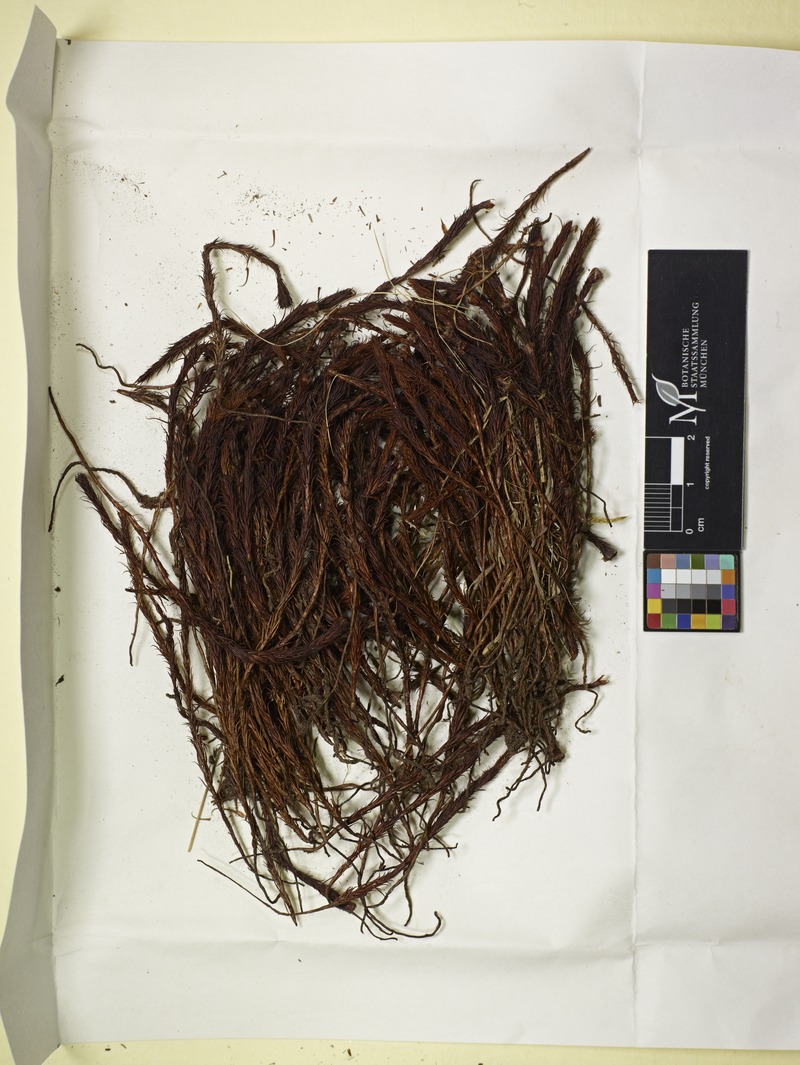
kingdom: Fungi
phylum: Ascomycota
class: Leotiomycetes
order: Helotiales
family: Helotiaceae
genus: Gloeopeziza
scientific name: Gloeopeziza cuneiformis
